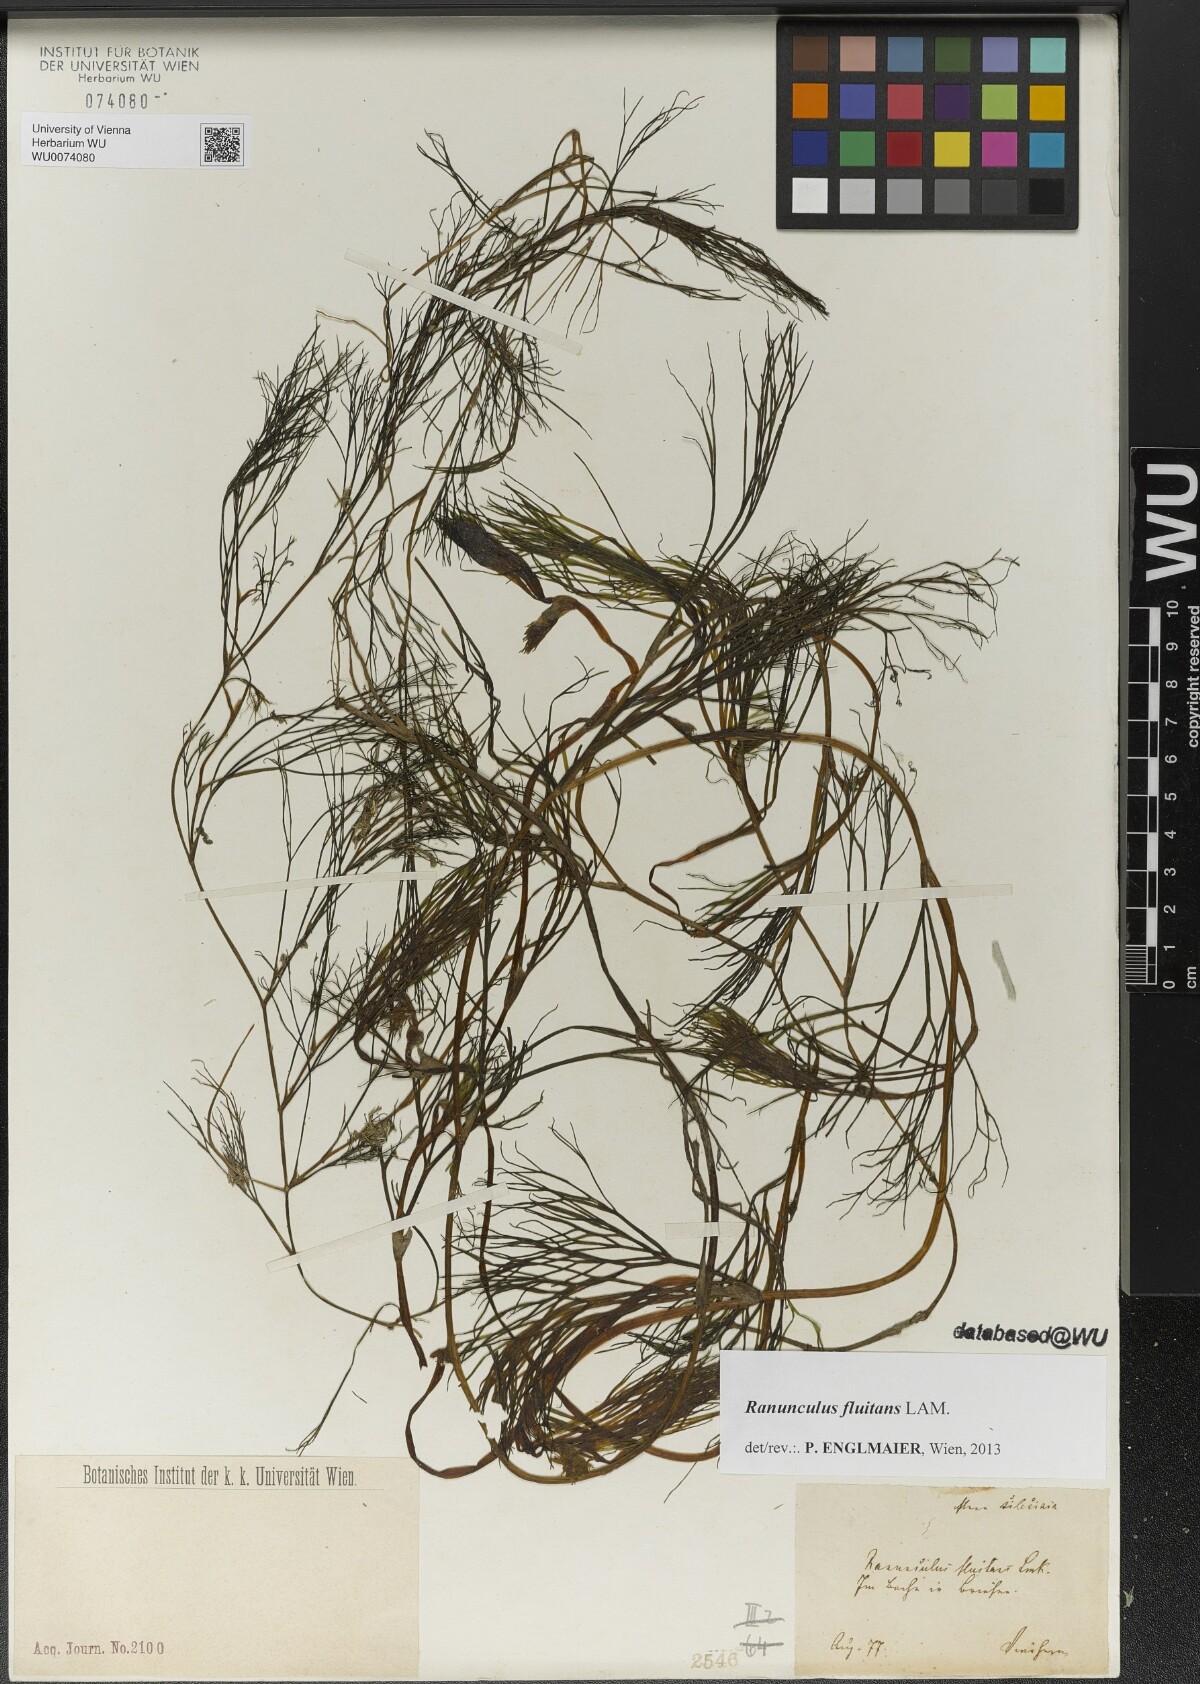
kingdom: Plantae
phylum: Tracheophyta
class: Magnoliopsida
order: Ranunculales
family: Ranunculaceae
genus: Ranunculus
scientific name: Ranunculus fluitans
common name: River water-crowfoot
